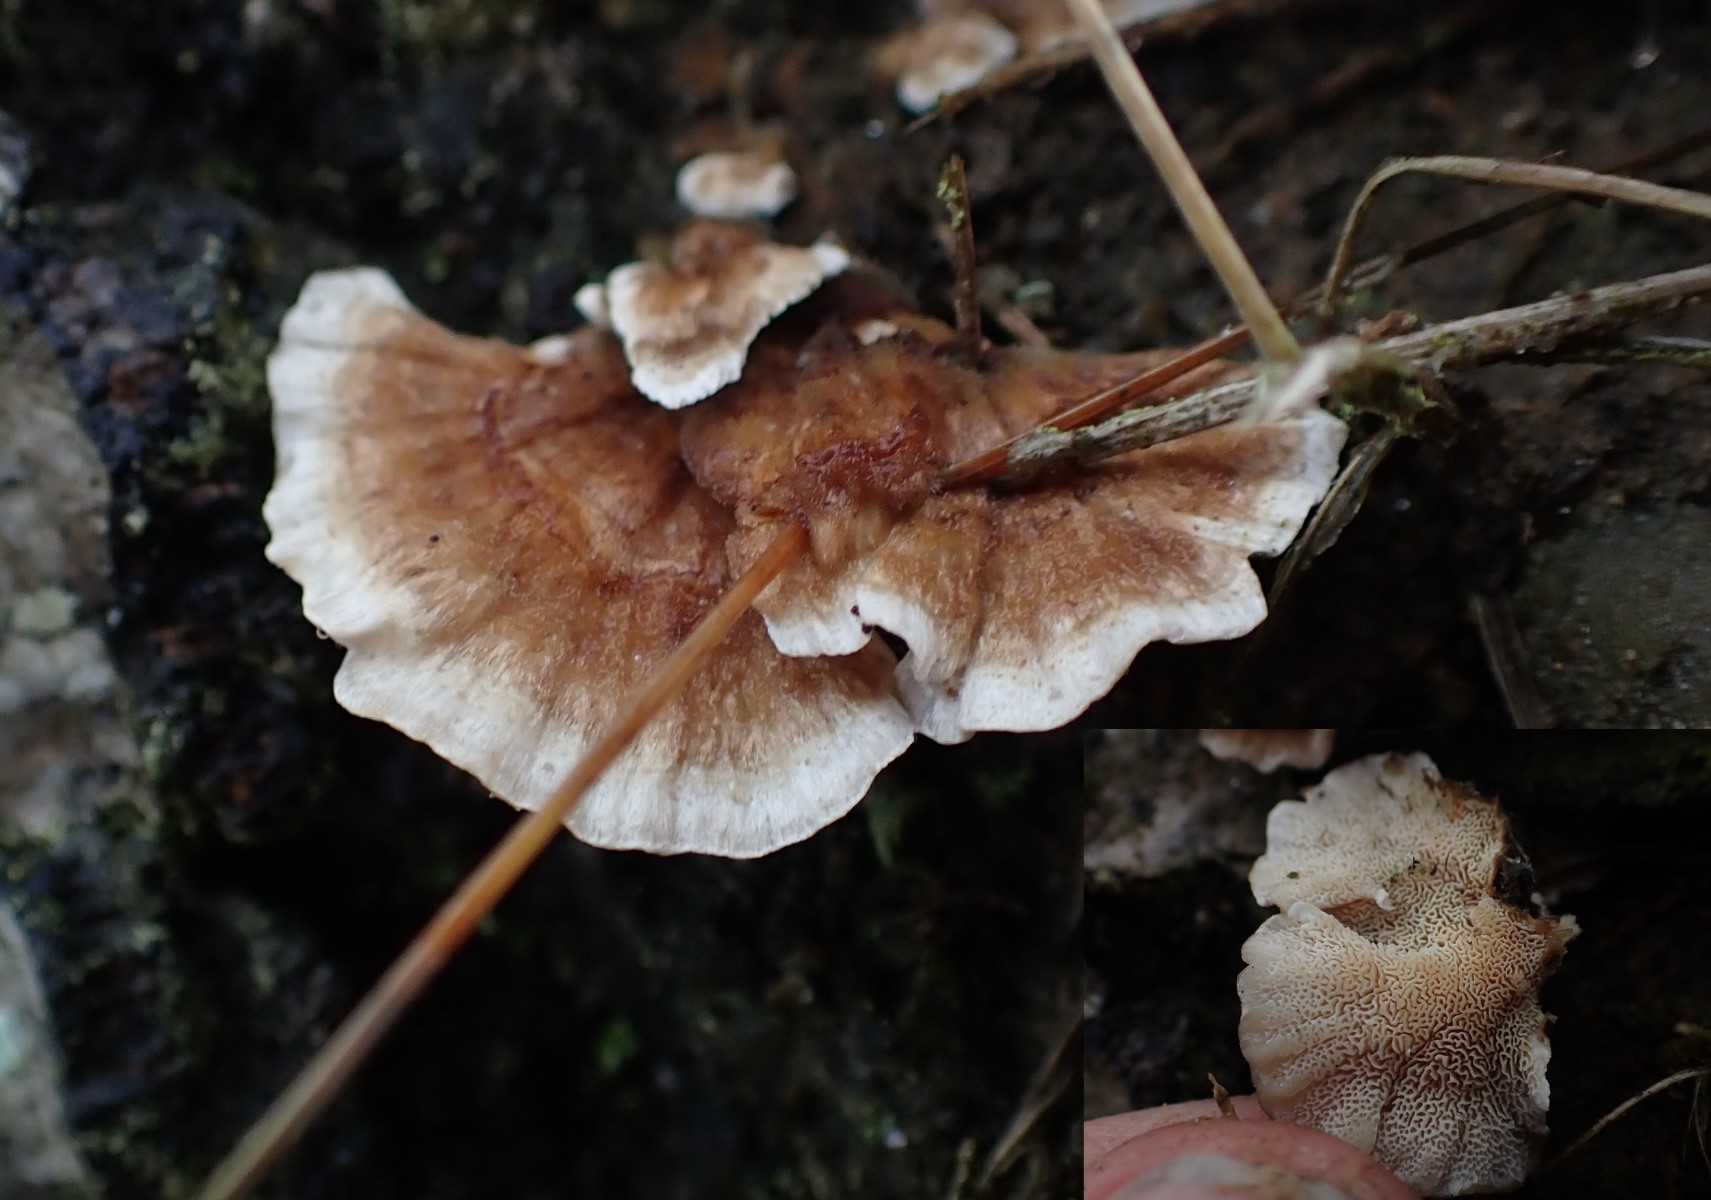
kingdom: Fungi
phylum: Basidiomycota
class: Agaricomycetes
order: Polyporales
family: Podoscyphaceae
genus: Abortiporus
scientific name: Abortiporus biennis
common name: rødmende pjalteporesvamp
